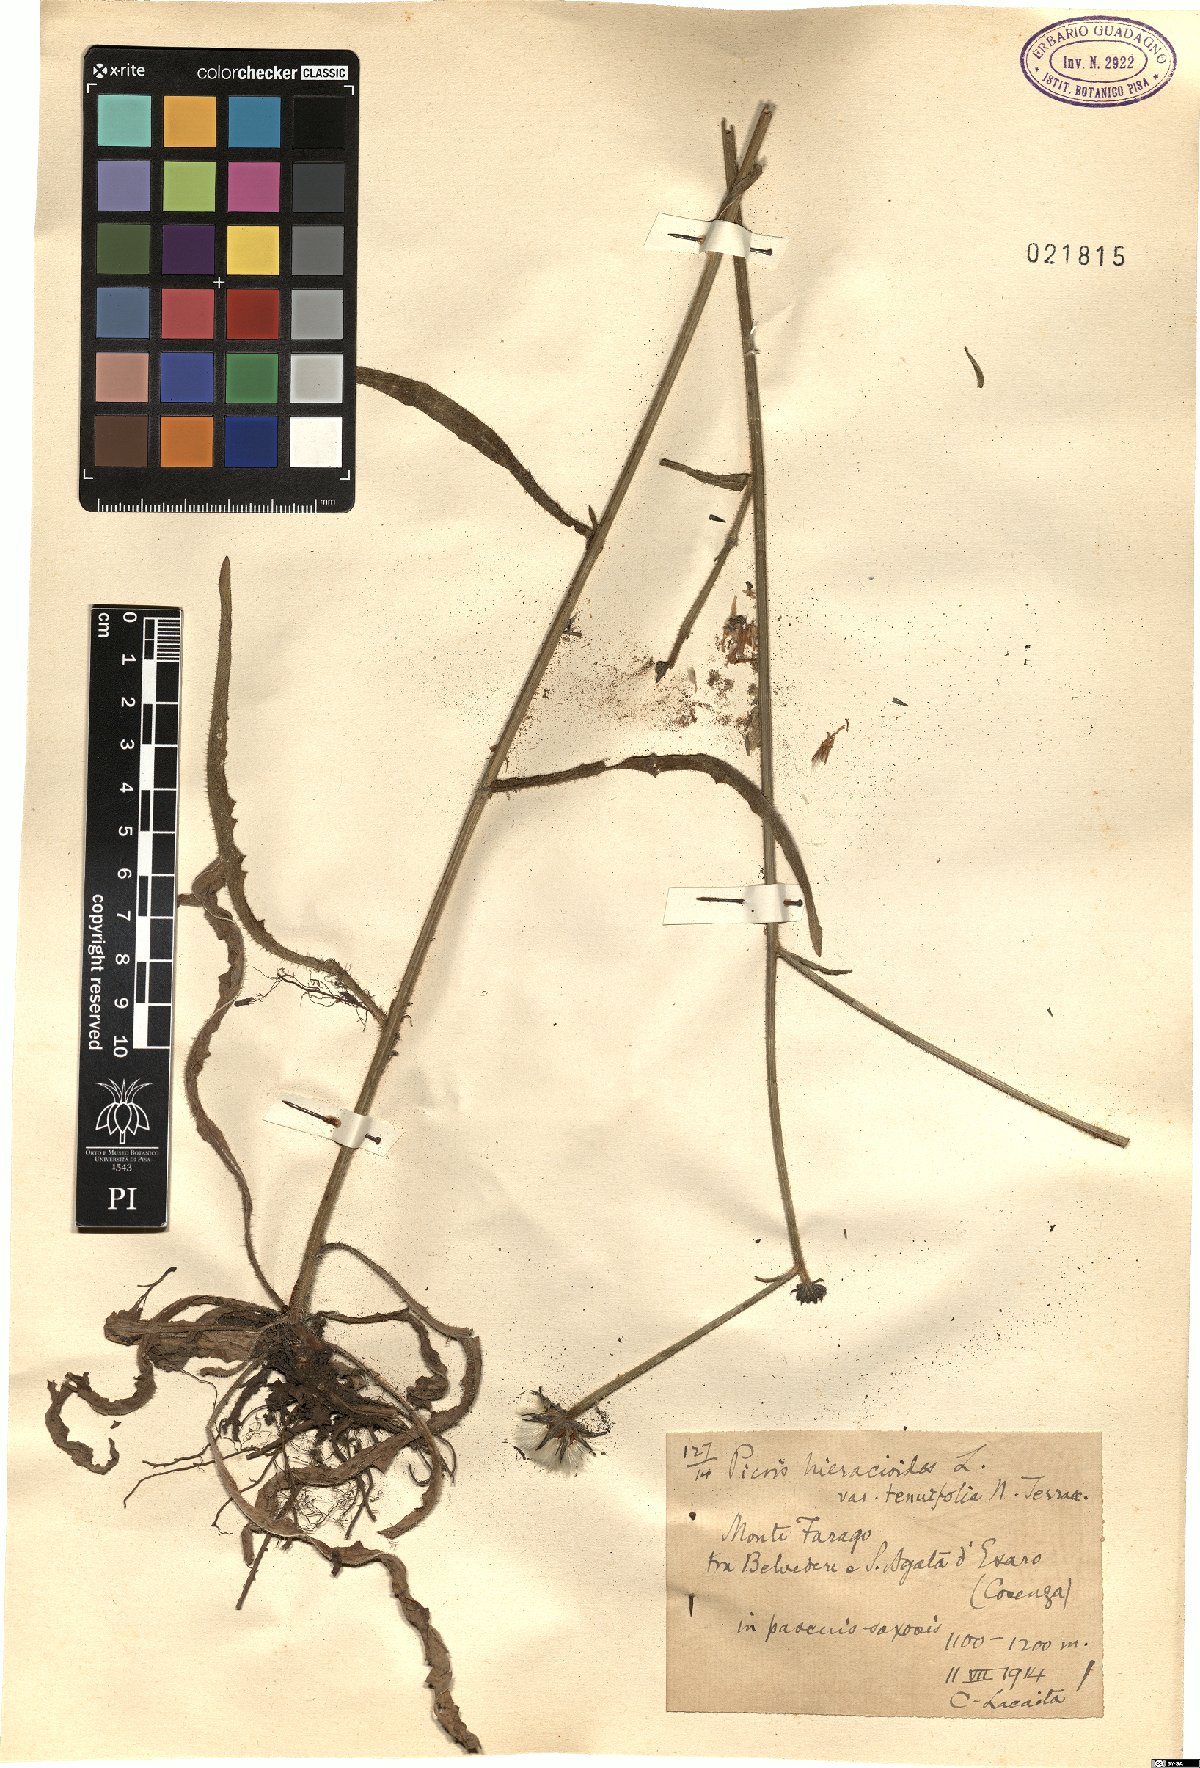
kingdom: Plantae
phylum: Tracheophyta
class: Magnoliopsida
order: Asterales
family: Asteraceae
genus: Picris
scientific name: Picris hieracioides
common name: Hawkweed oxtongue
